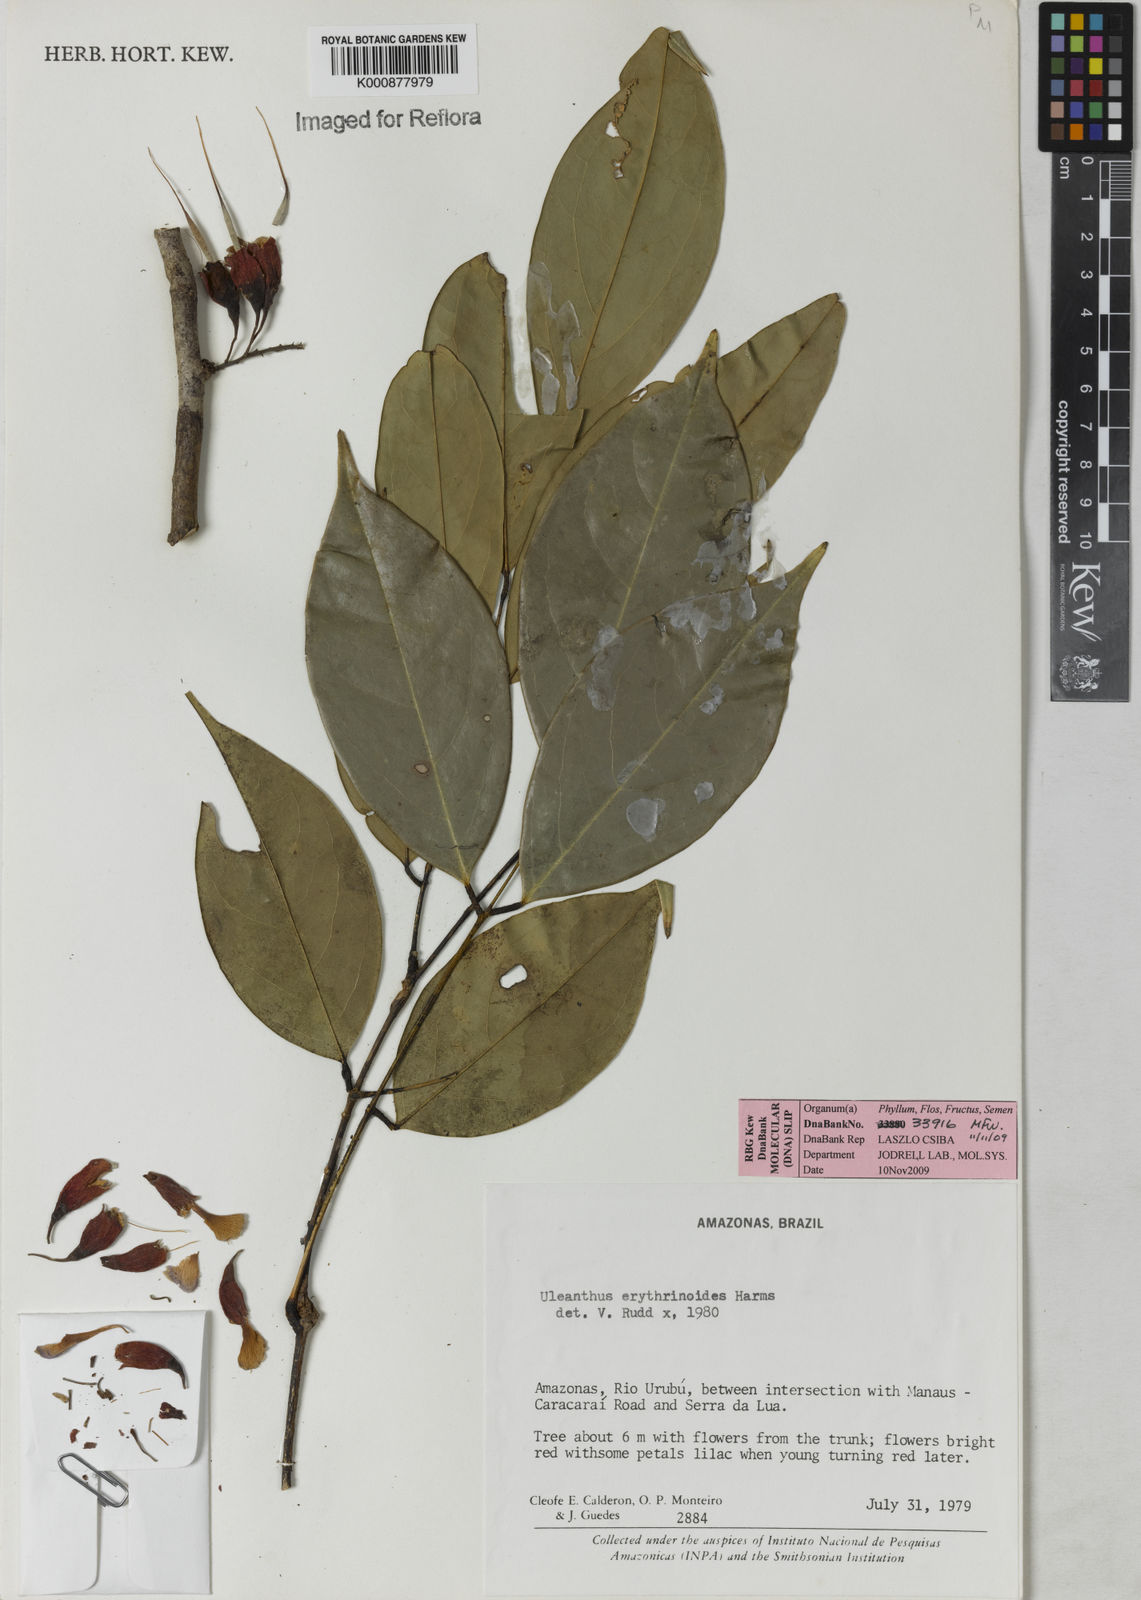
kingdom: Plantae
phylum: Tracheophyta
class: Magnoliopsida
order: Fabales
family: Fabaceae
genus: Uleanthus
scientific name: Uleanthus erythrinoides
